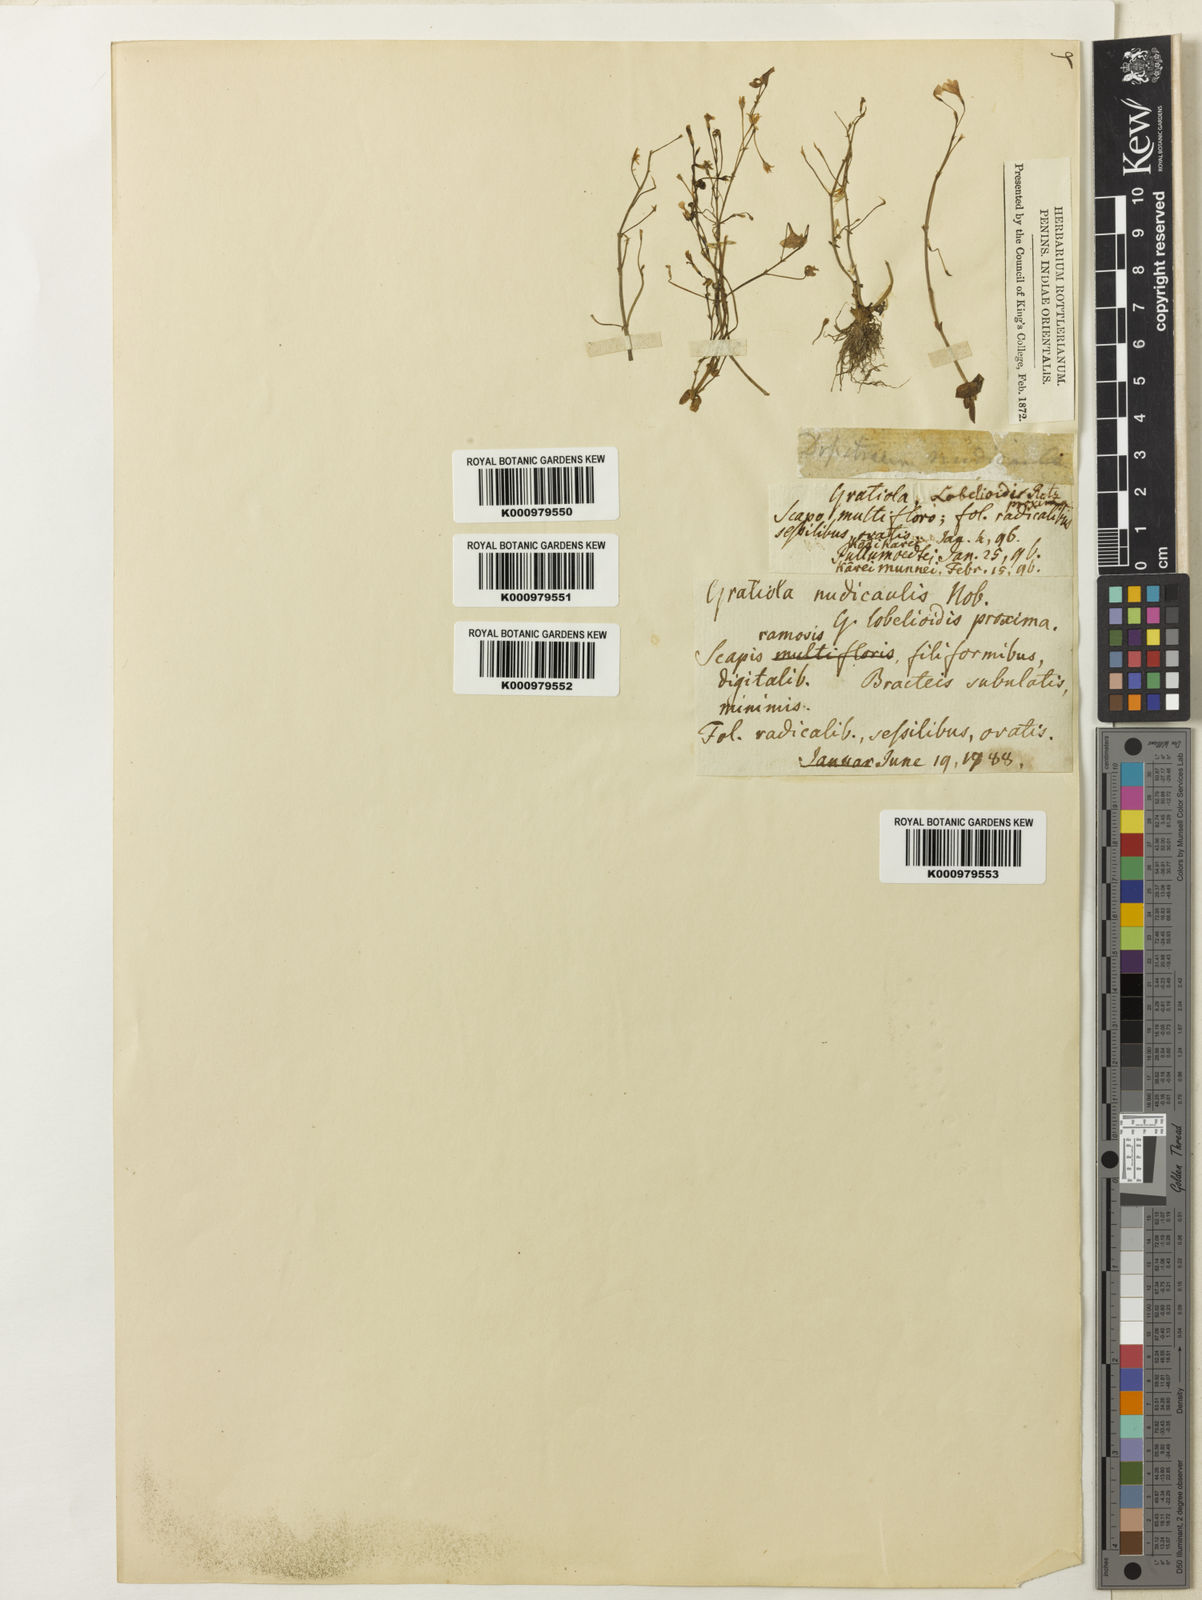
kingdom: Plantae
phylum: Tracheophyta
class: Magnoliopsida
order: Lamiales
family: Plantaginaceae
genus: Dopatrium
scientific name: Dopatrium nudicaule
